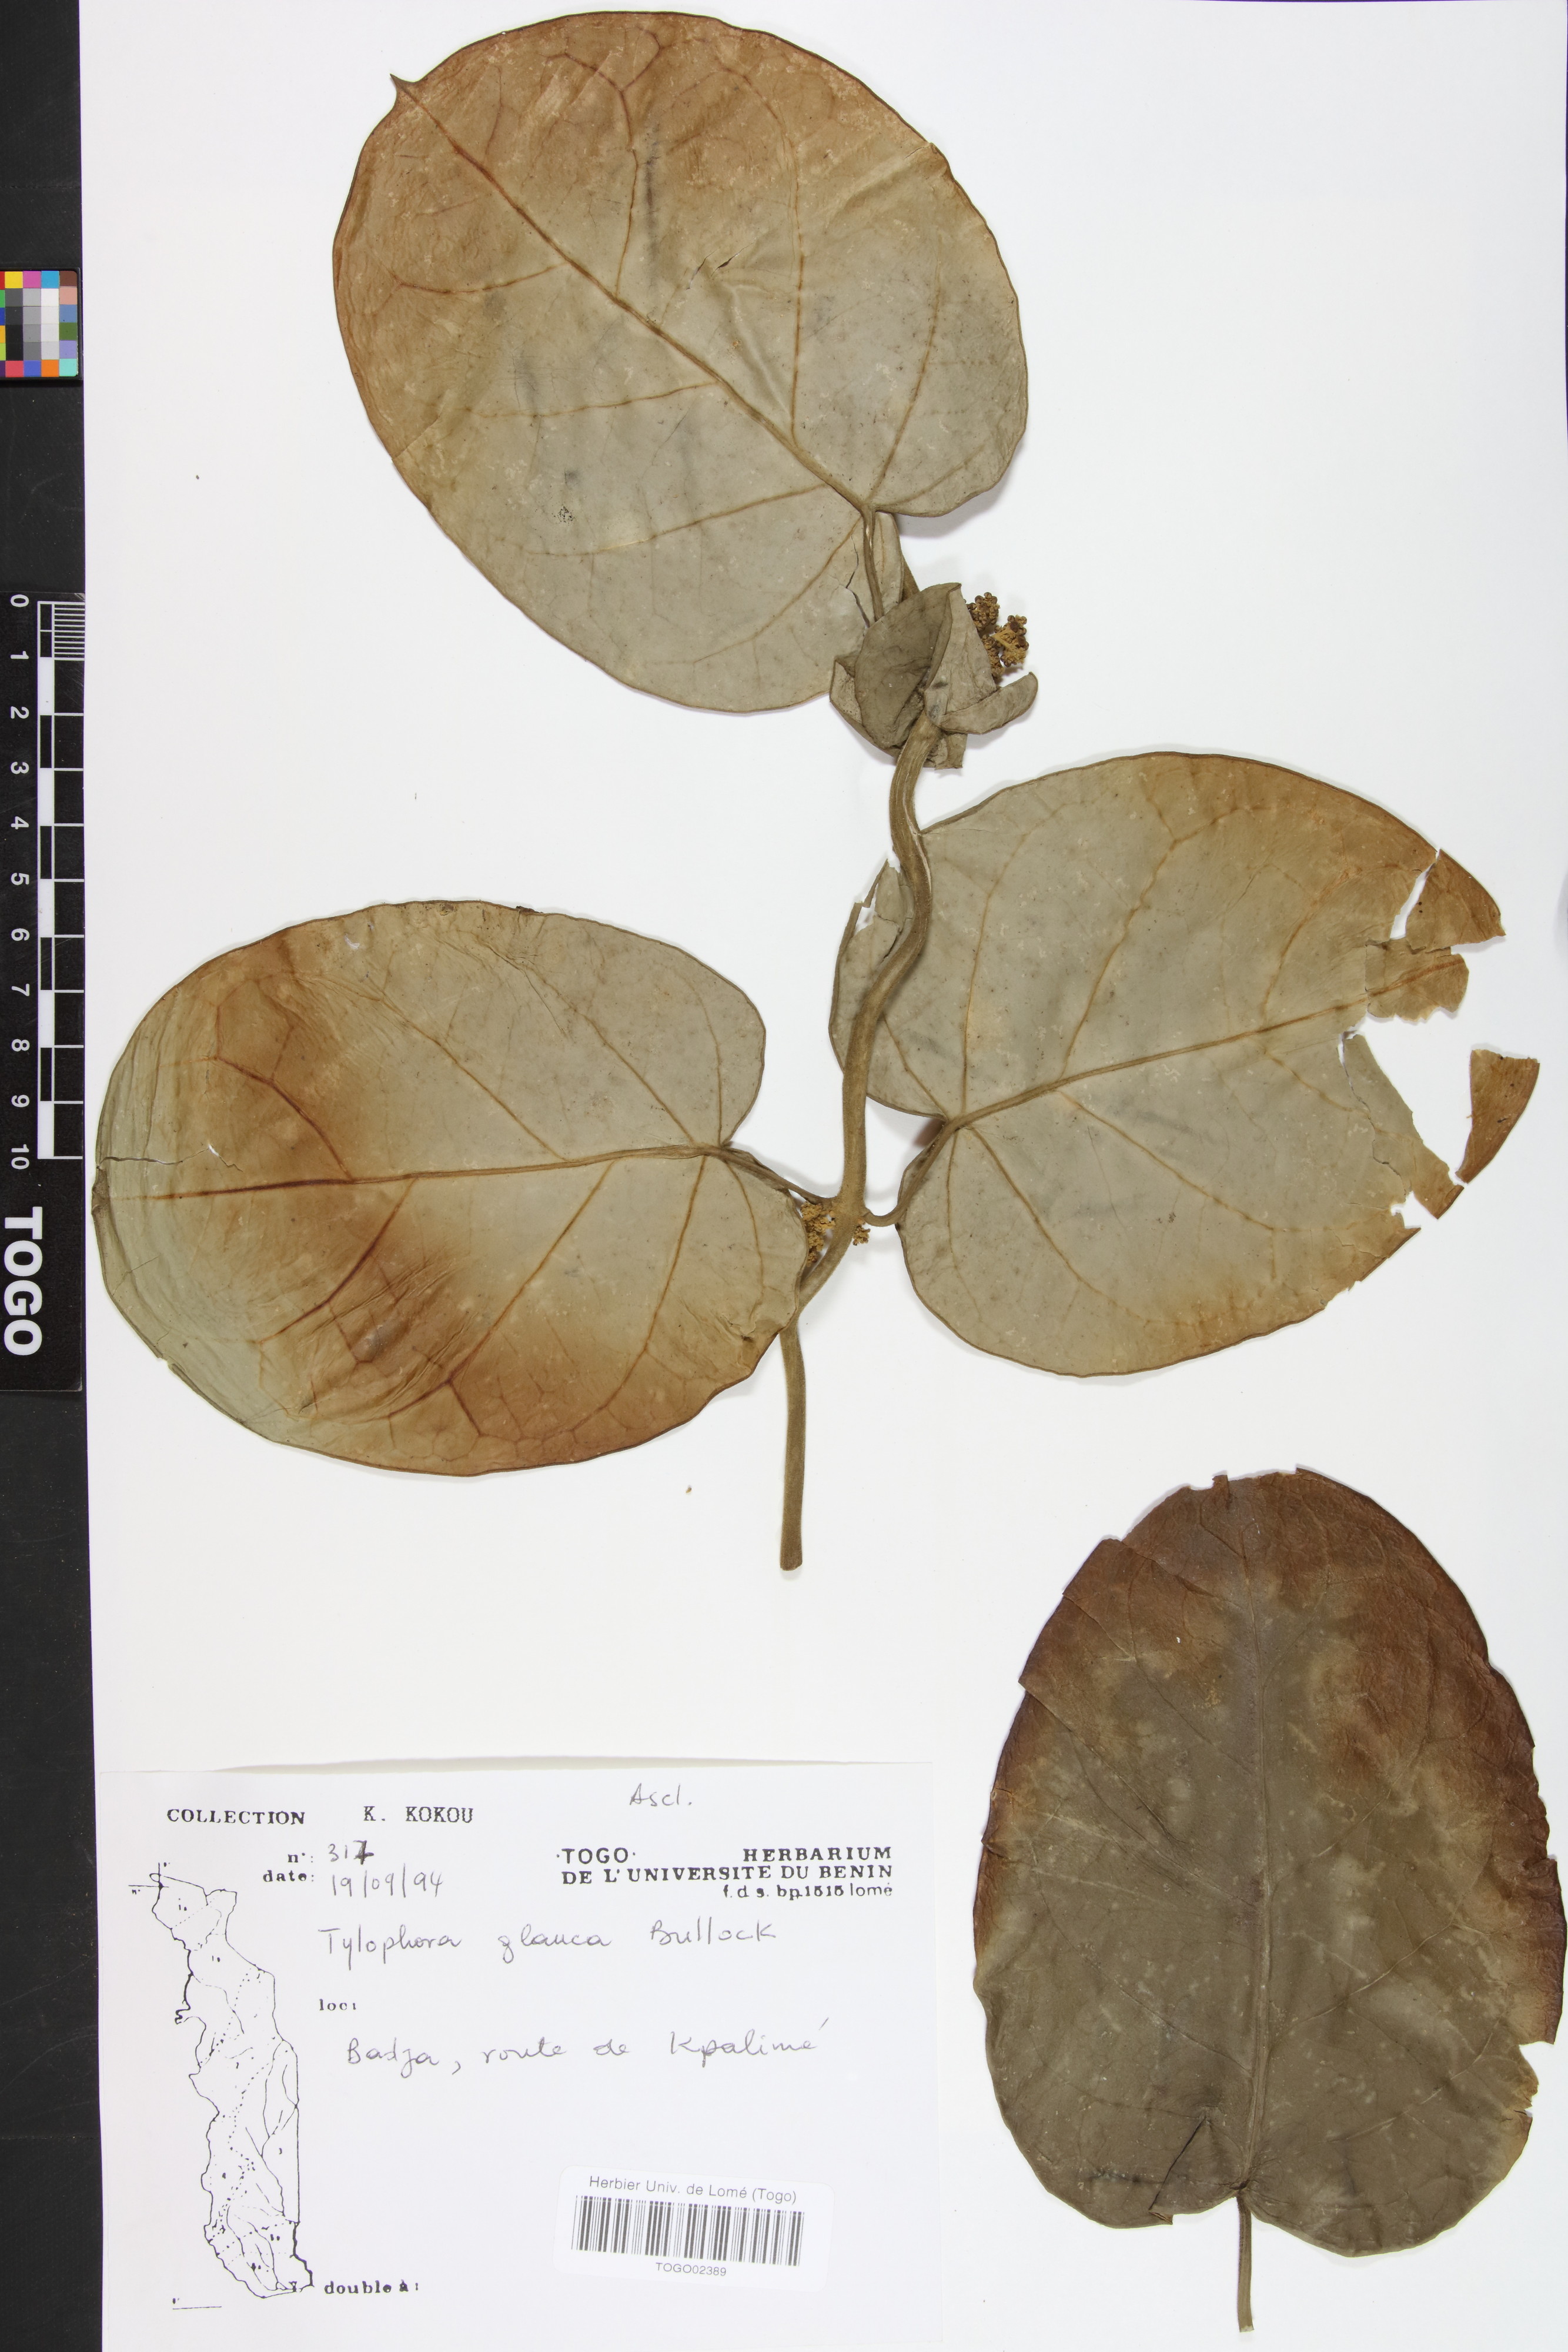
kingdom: Plantae
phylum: Tracheophyta
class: Magnoliopsida
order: Gentianales
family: Apocynaceae
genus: Vincetoxicum
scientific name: Vincetoxicum cameroonicum
